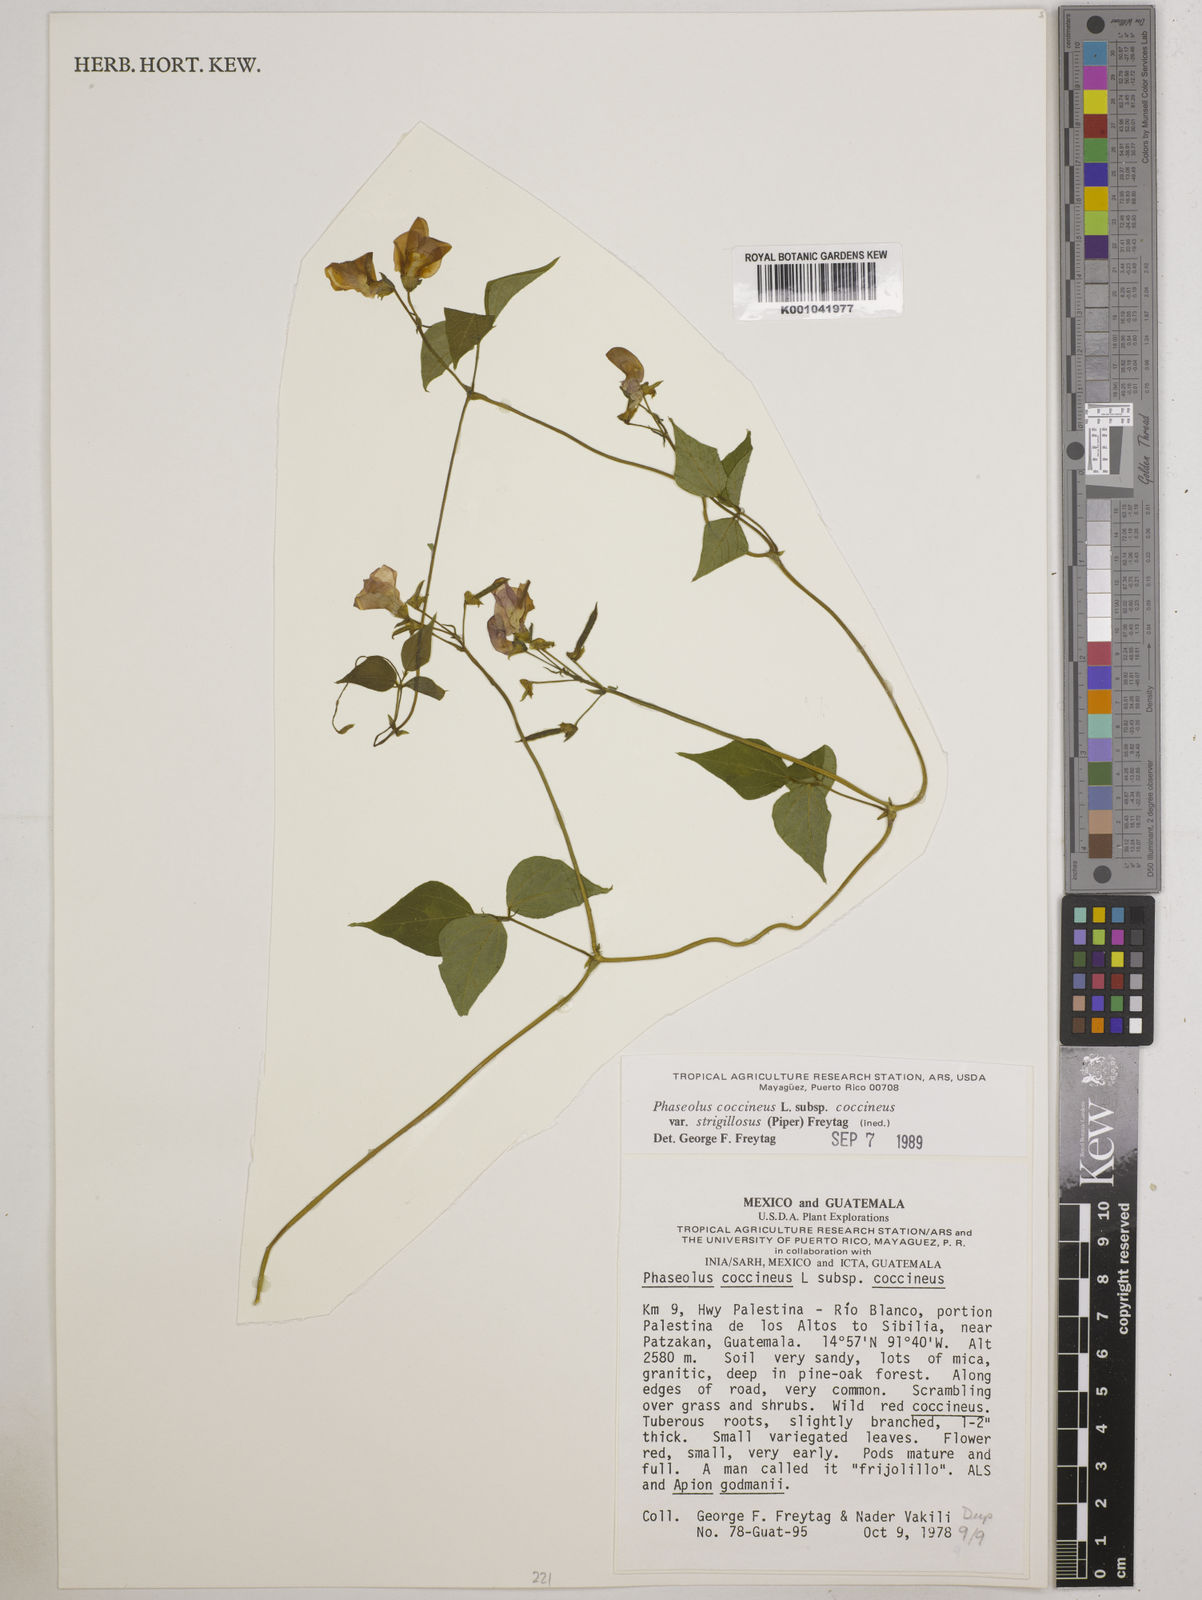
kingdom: Plantae
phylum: Tracheophyta
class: Magnoliopsida
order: Fabales
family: Fabaceae
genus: Phaseolus
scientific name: Phaseolus
